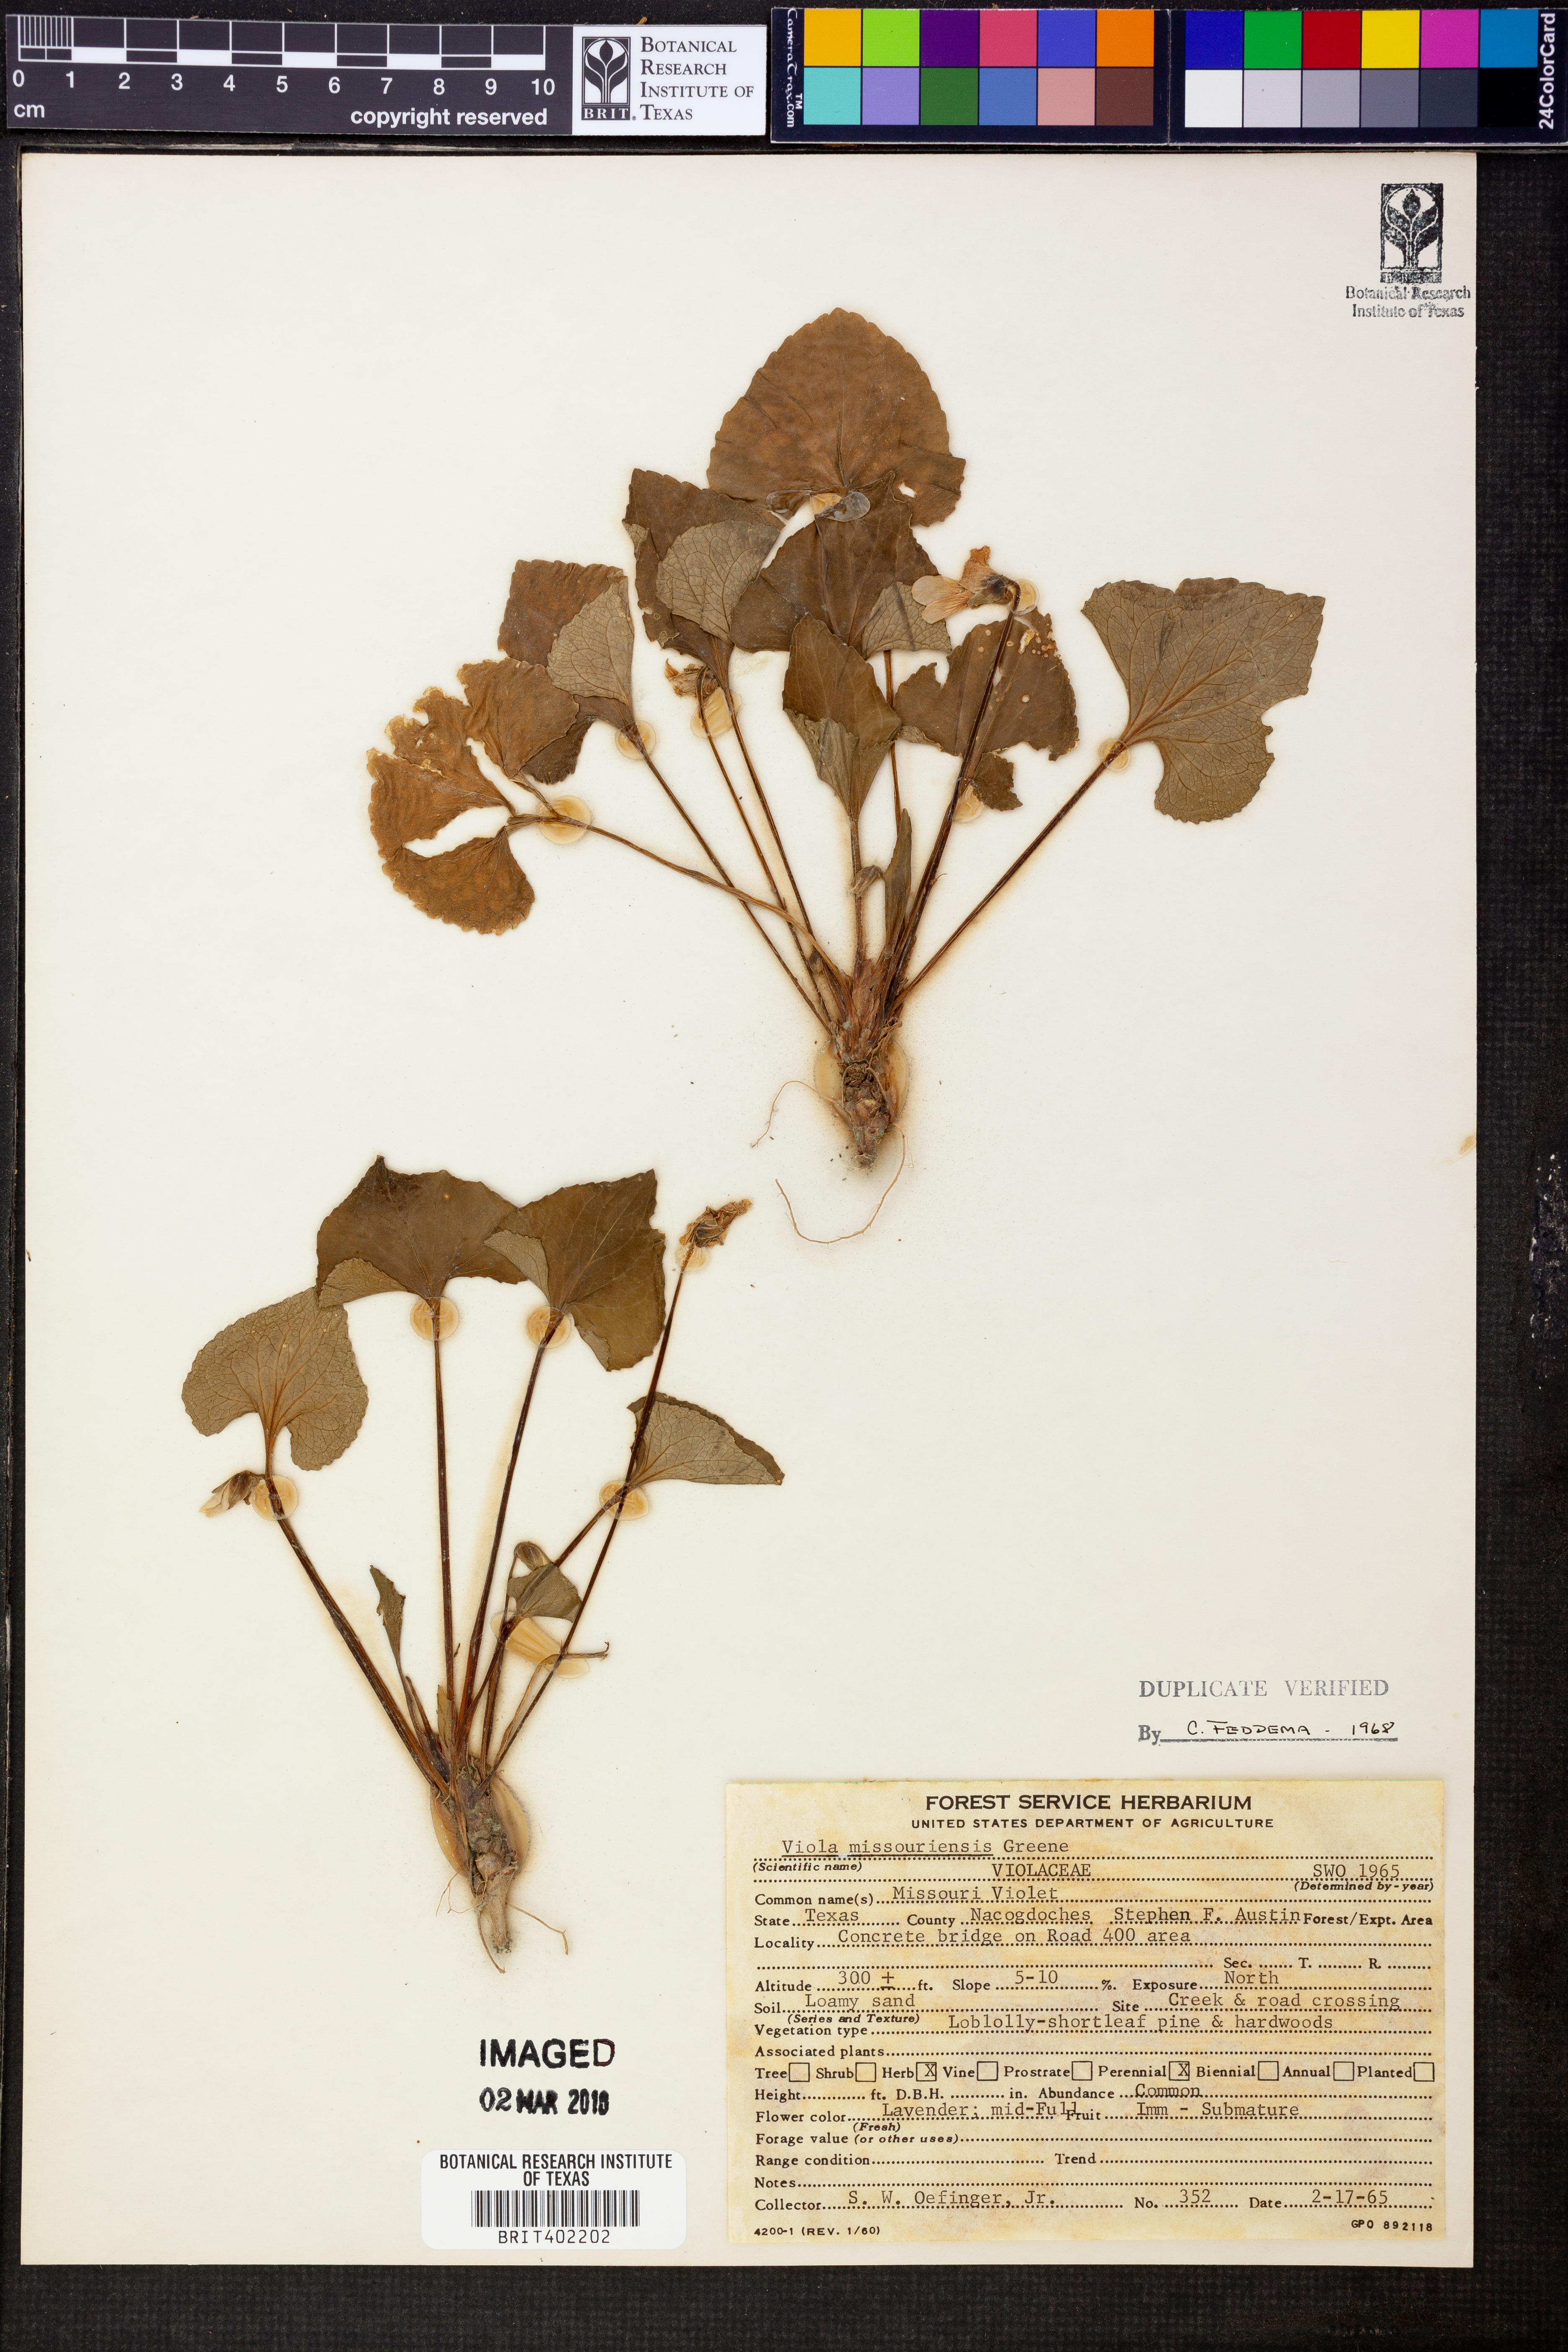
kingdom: Plantae
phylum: Tracheophyta
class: Magnoliopsida
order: Malpighiales
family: Violaceae
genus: Viola
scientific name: Viola missouriensis
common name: Missouri violet
